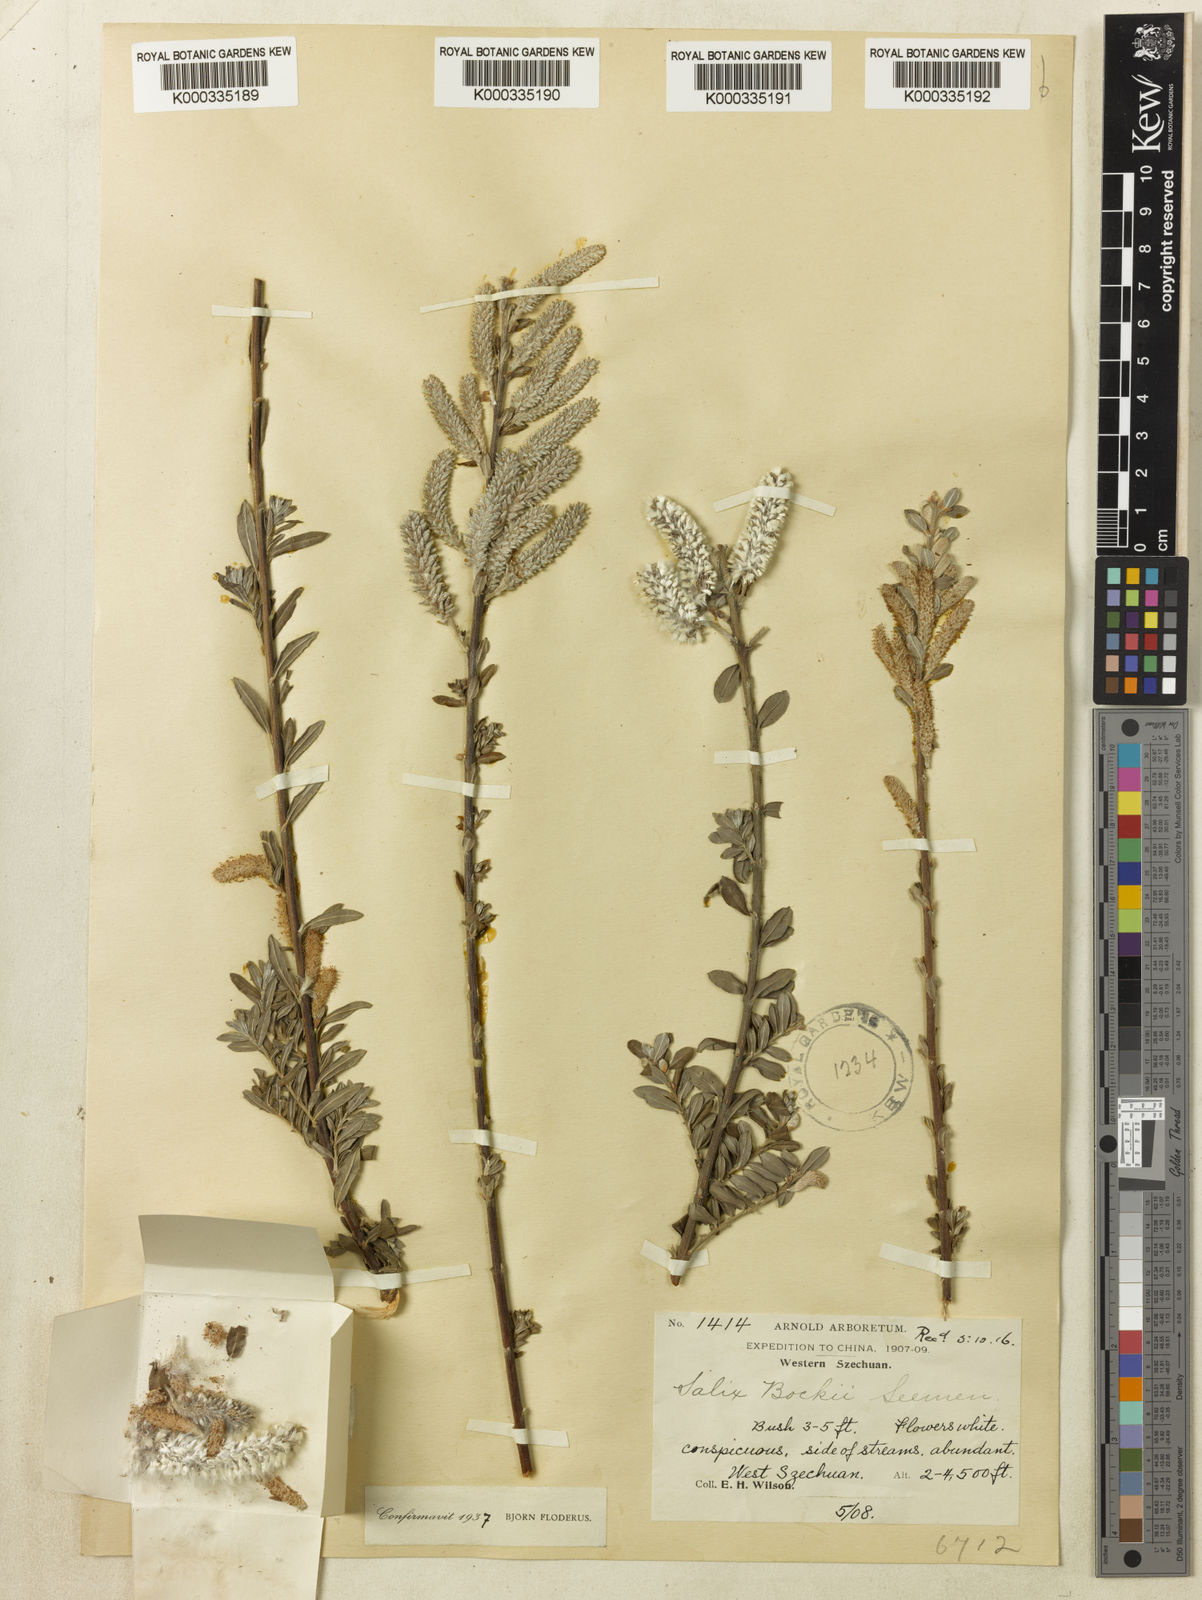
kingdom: Plantae
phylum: Tracheophyta
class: Magnoliopsida
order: Malpighiales
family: Salicaceae
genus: Salix
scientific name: Salix
